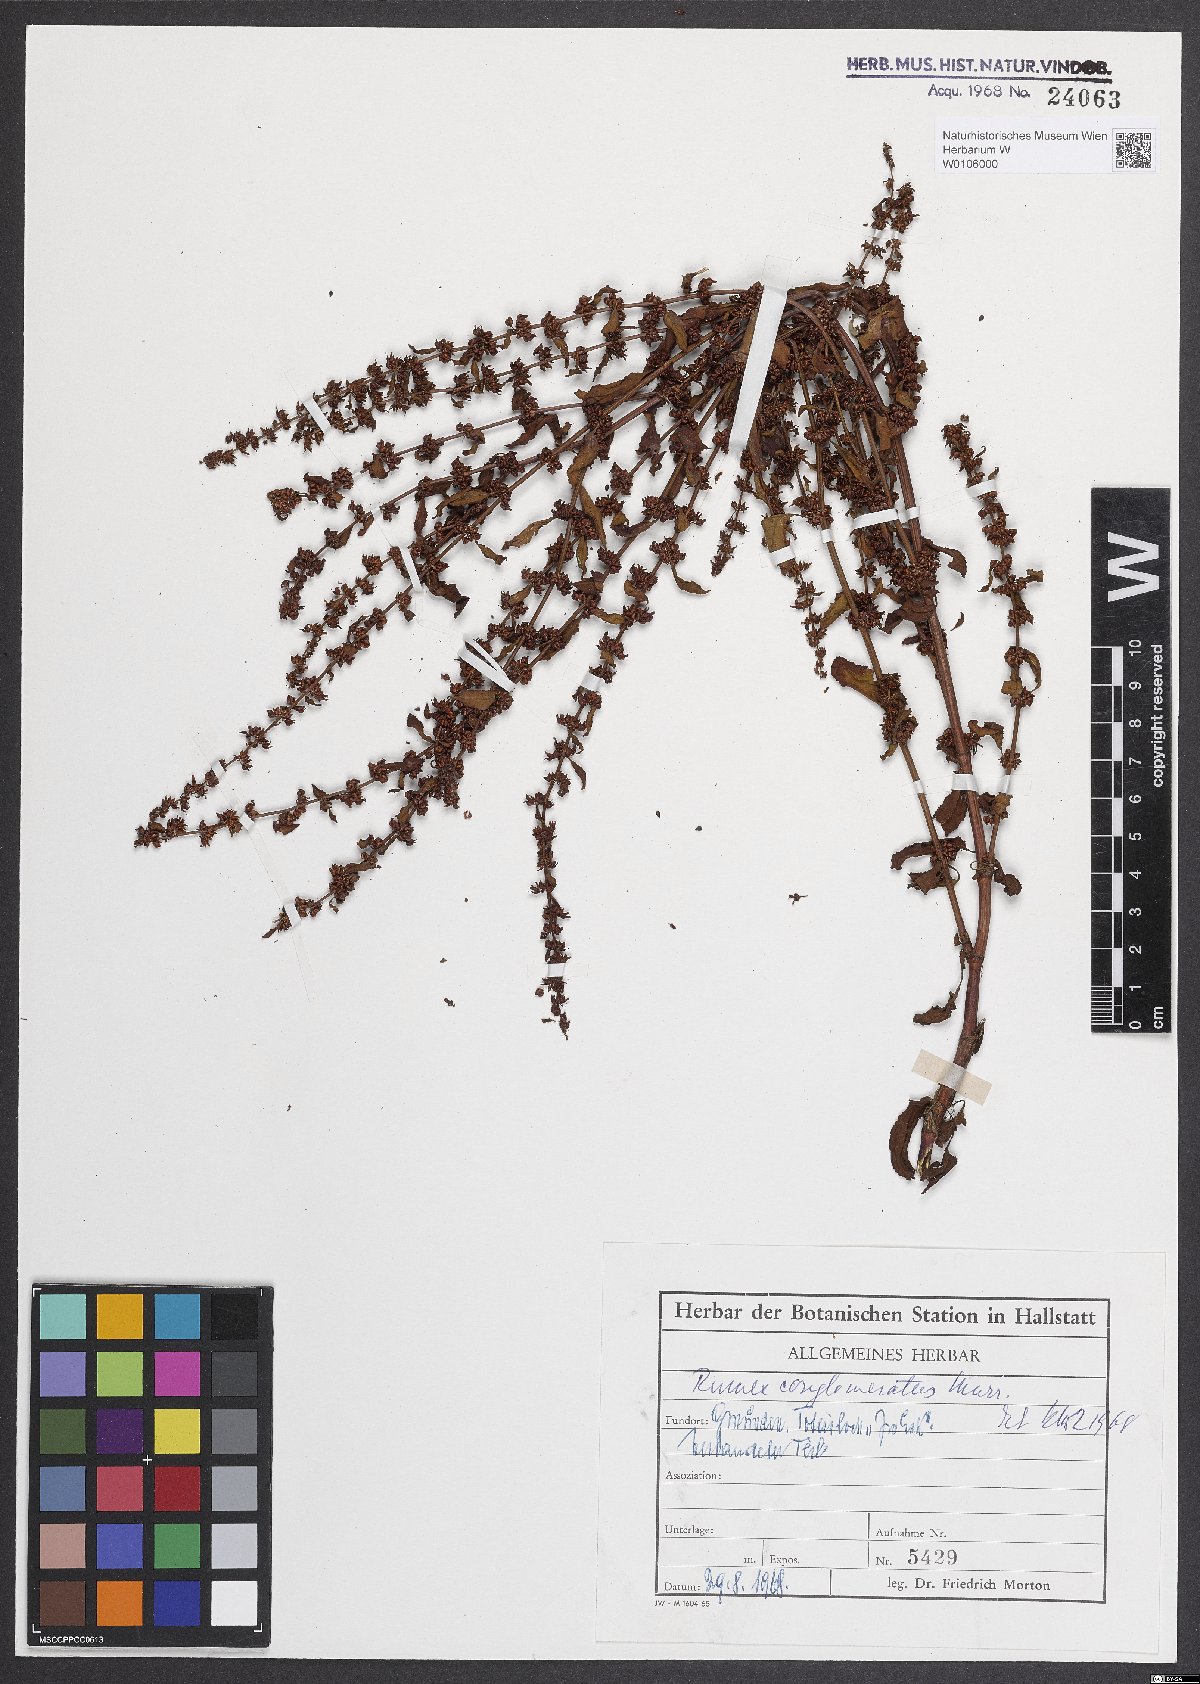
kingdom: Plantae
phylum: Tracheophyta
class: Magnoliopsida
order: Caryophyllales
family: Polygonaceae
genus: Rumex
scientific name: Rumex conglomeratus
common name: Clustered dock
